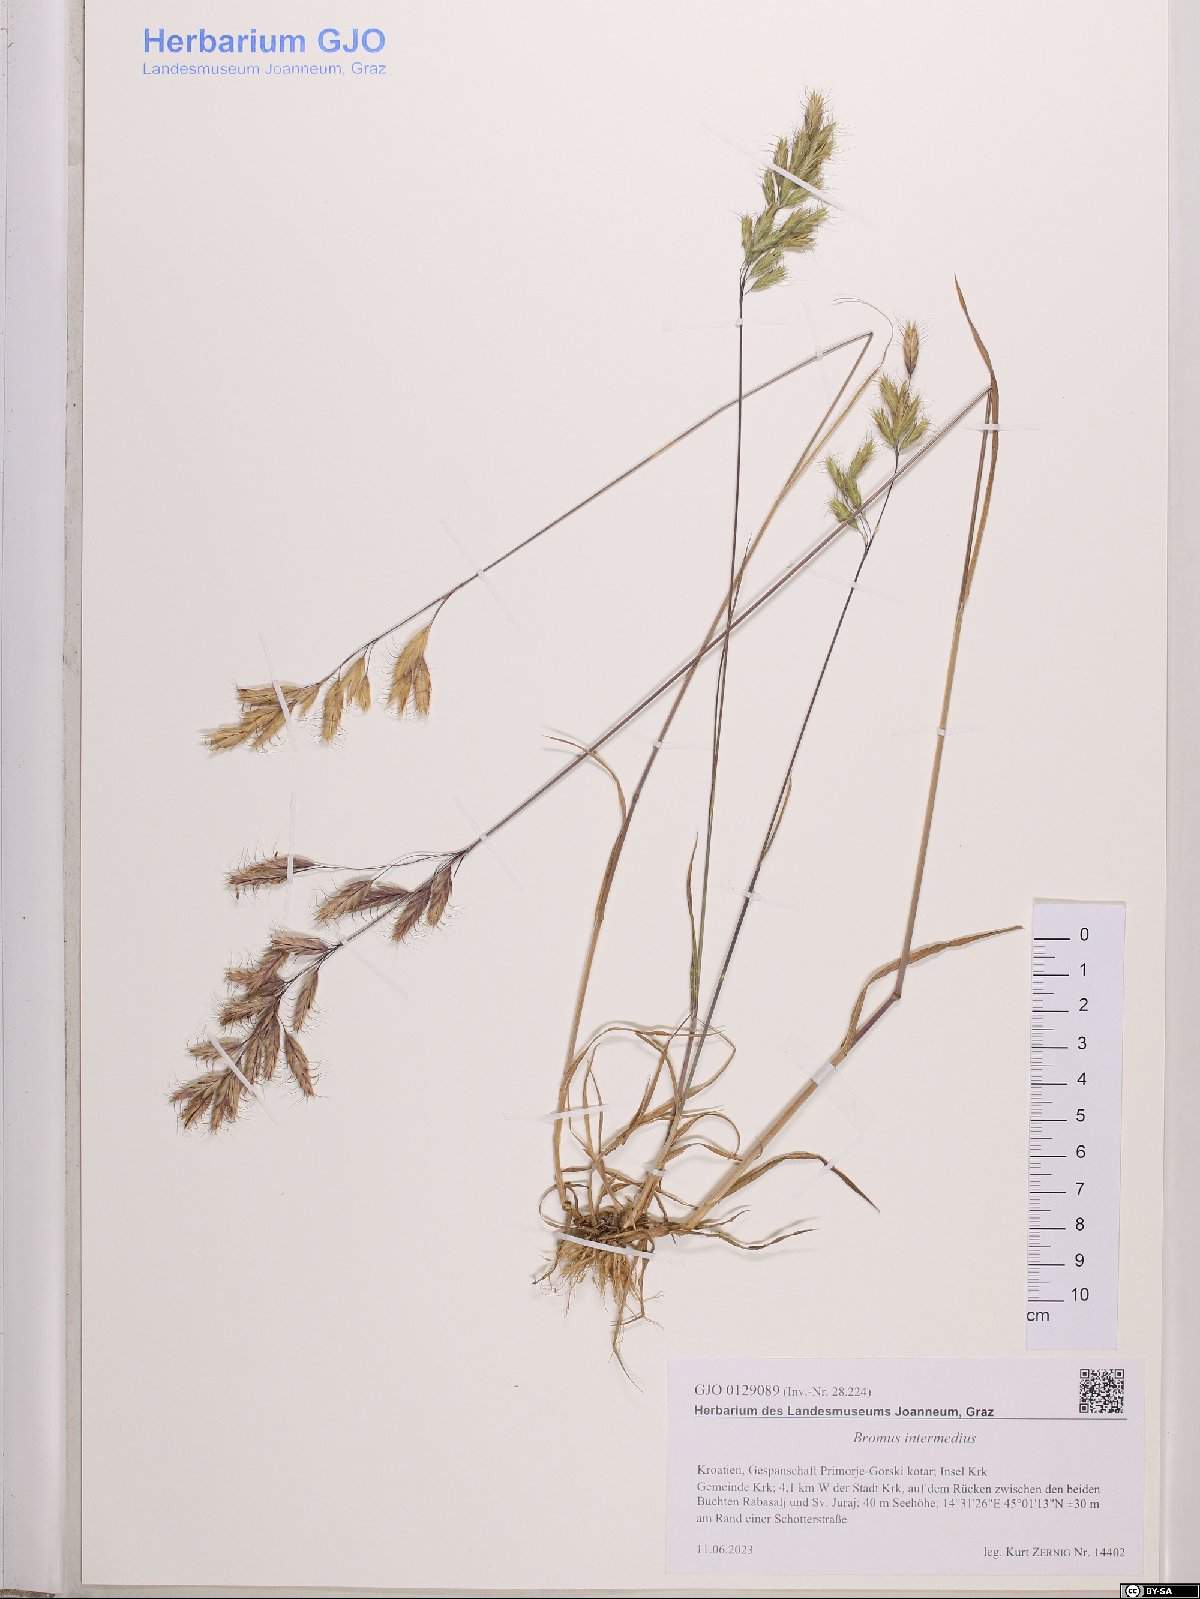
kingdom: Plantae
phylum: Tracheophyta
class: Liliopsida
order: Poales
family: Poaceae
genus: Bromus
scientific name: Bromus intermedius
